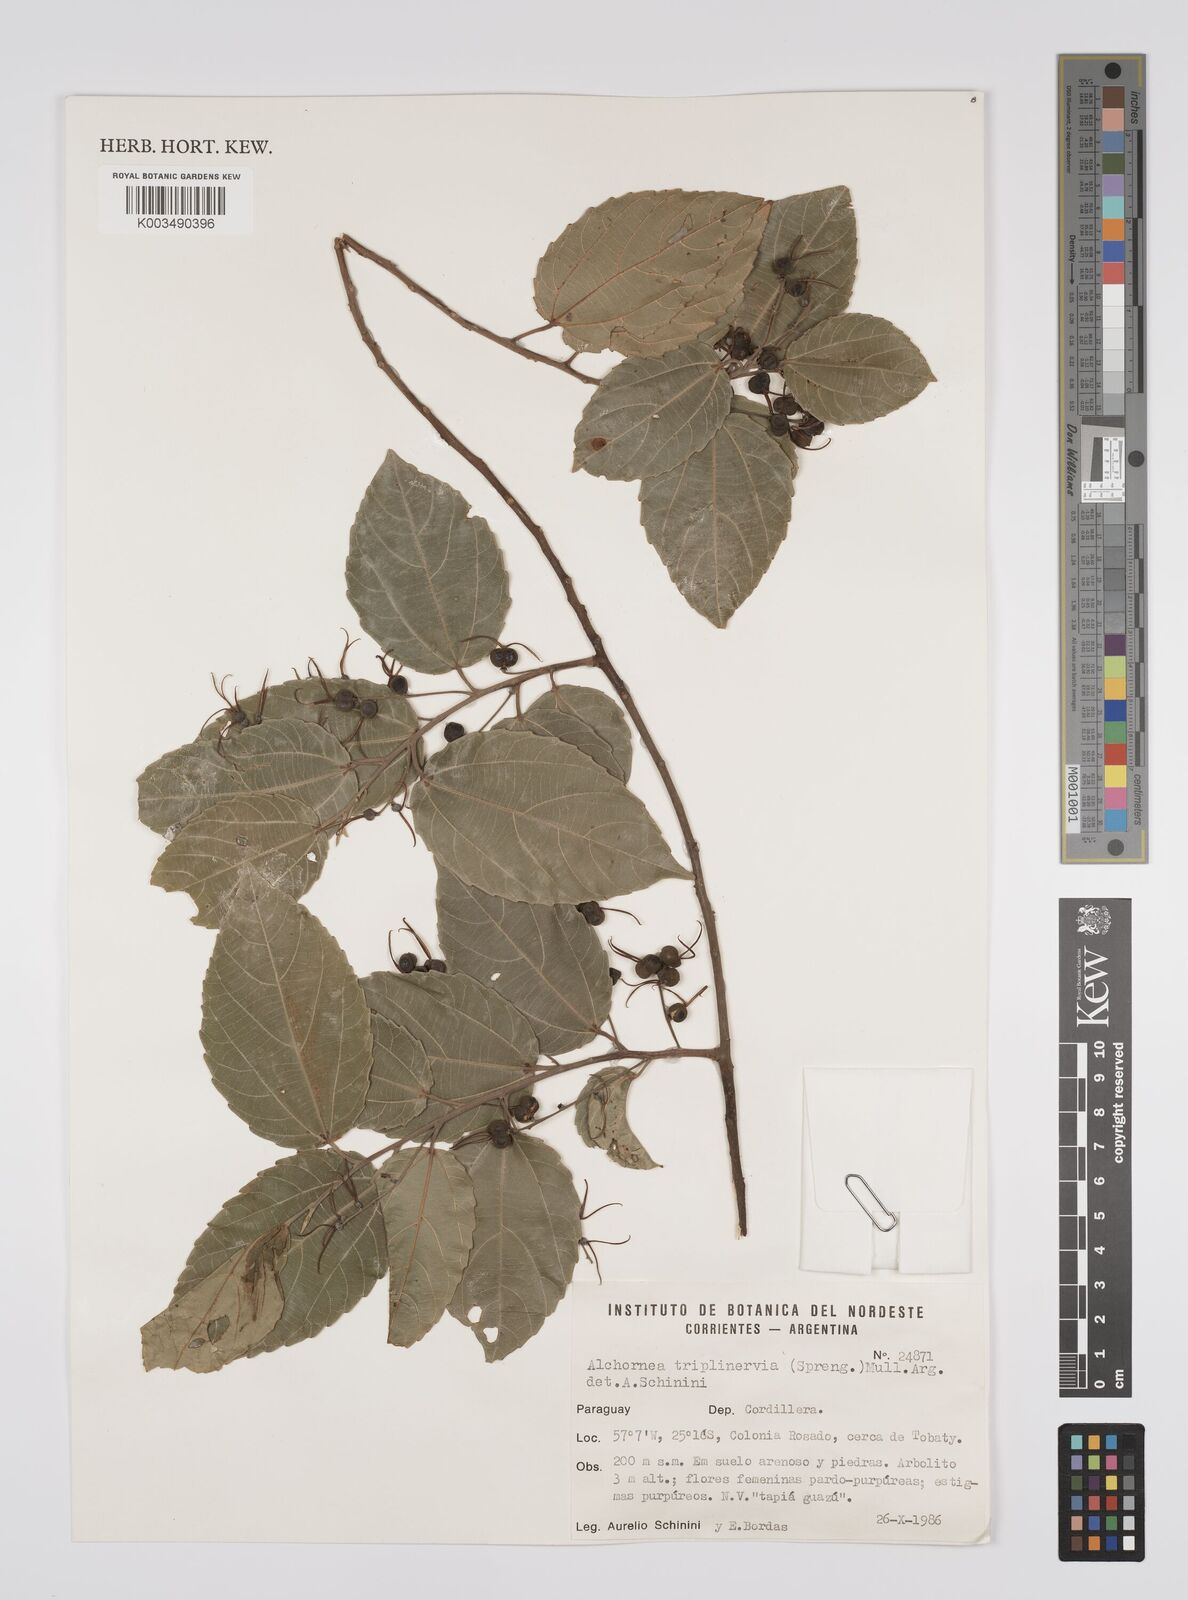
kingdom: Plantae
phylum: Tracheophyta
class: Magnoliopsida
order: Malpighiales
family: Euphorbiaceae
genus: Alchornea
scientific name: Alchornea triplinervia
